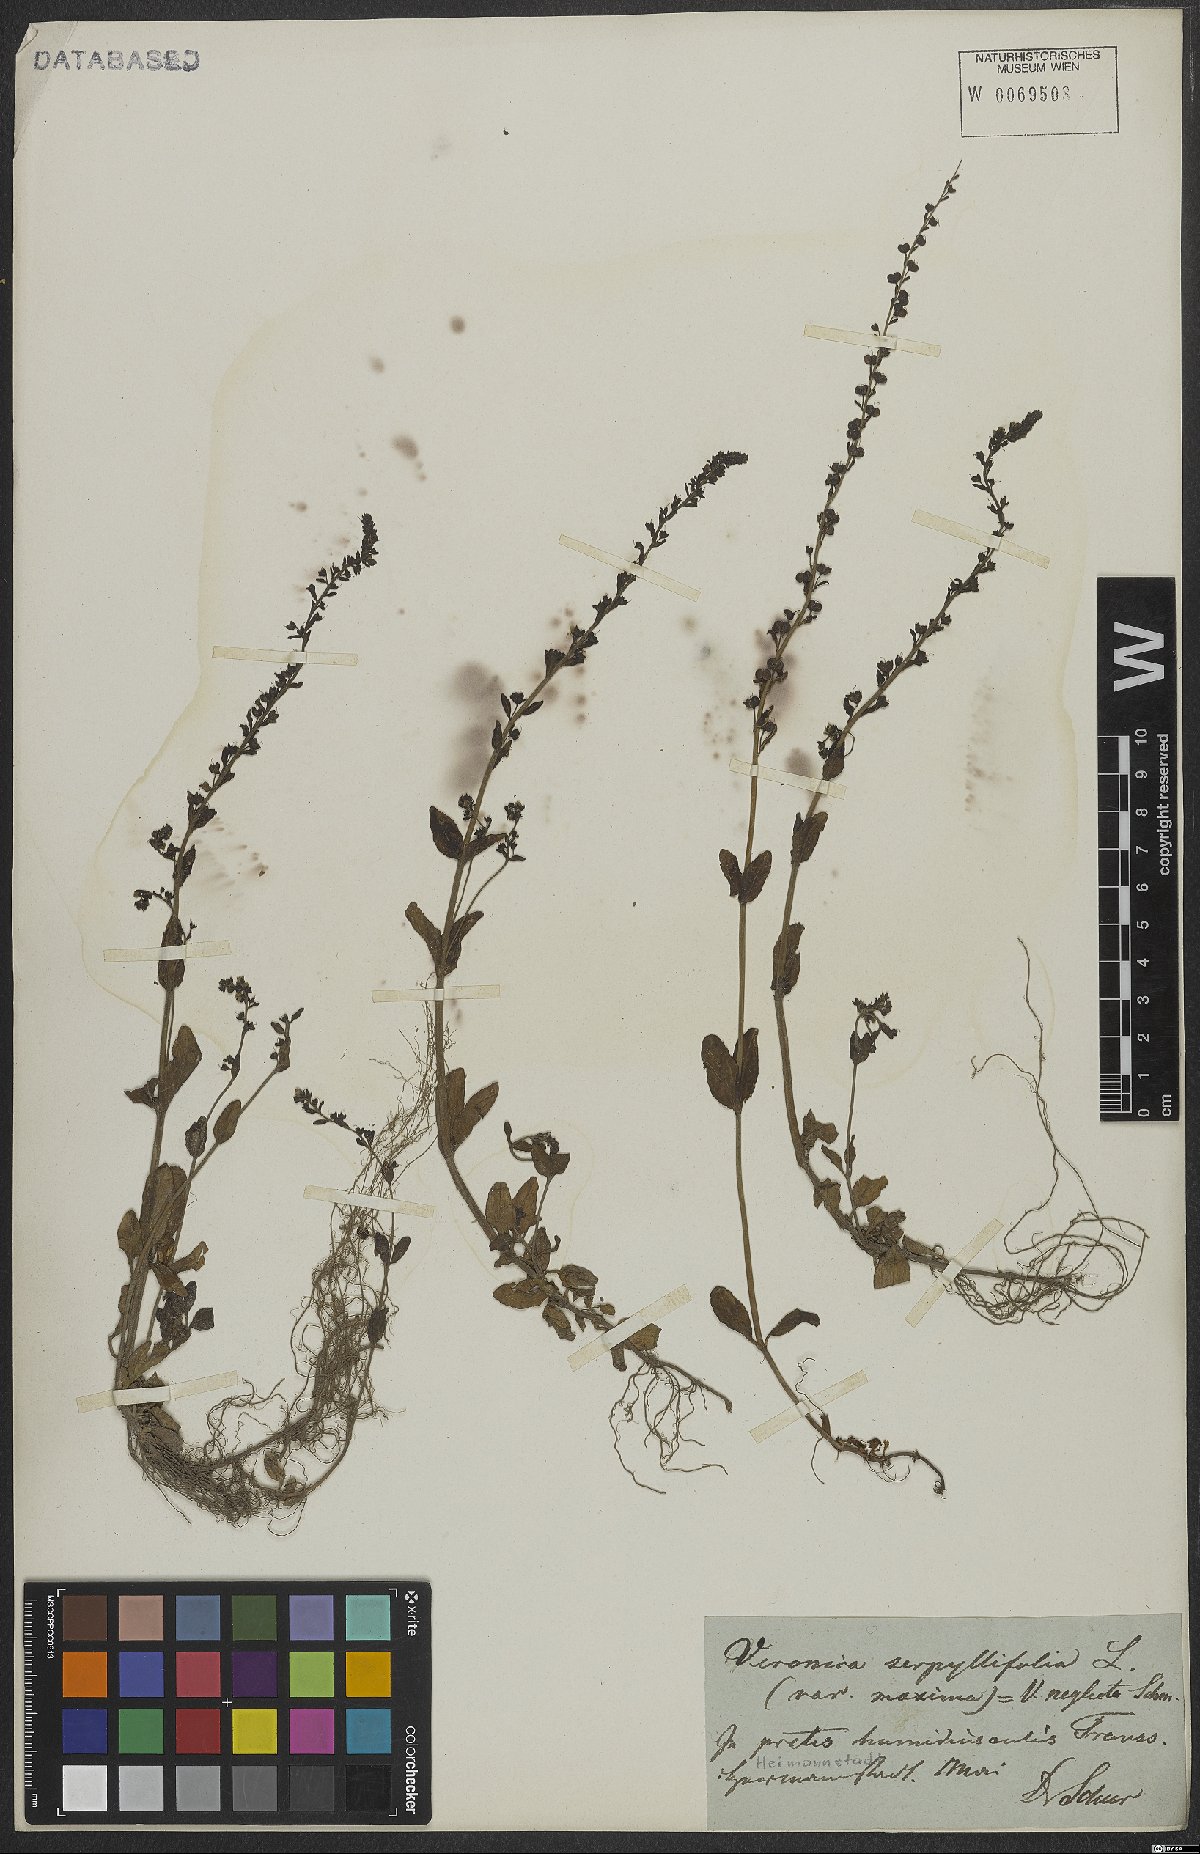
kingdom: Plantae
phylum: Tracheophyta
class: Magnoliopsida
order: Lamiales
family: Plantaginaceae
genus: Veronica
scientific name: Veronica serpyllifolia
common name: Thyme-leaved speedwell
